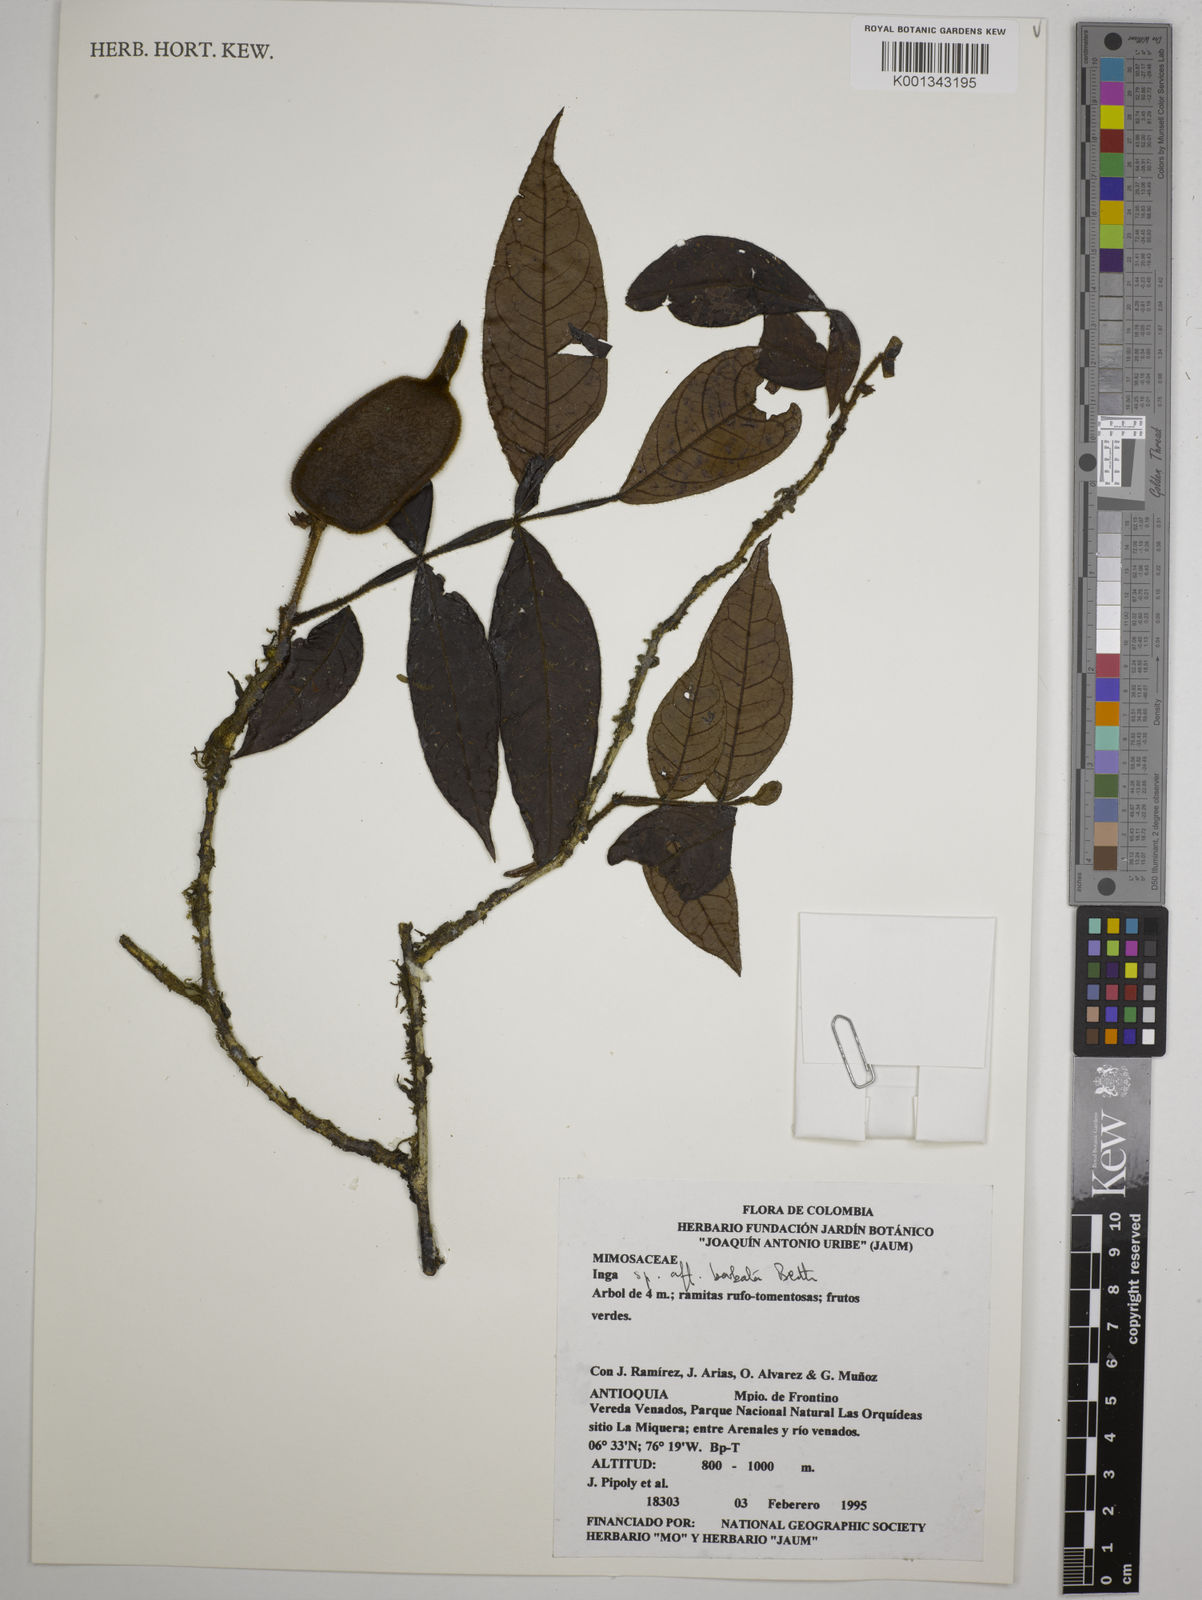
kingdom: Plantae
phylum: Tracheophyta
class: Magnoliopsida
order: Fabales
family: Fabaceae
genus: Inga
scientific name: Inga barbata
